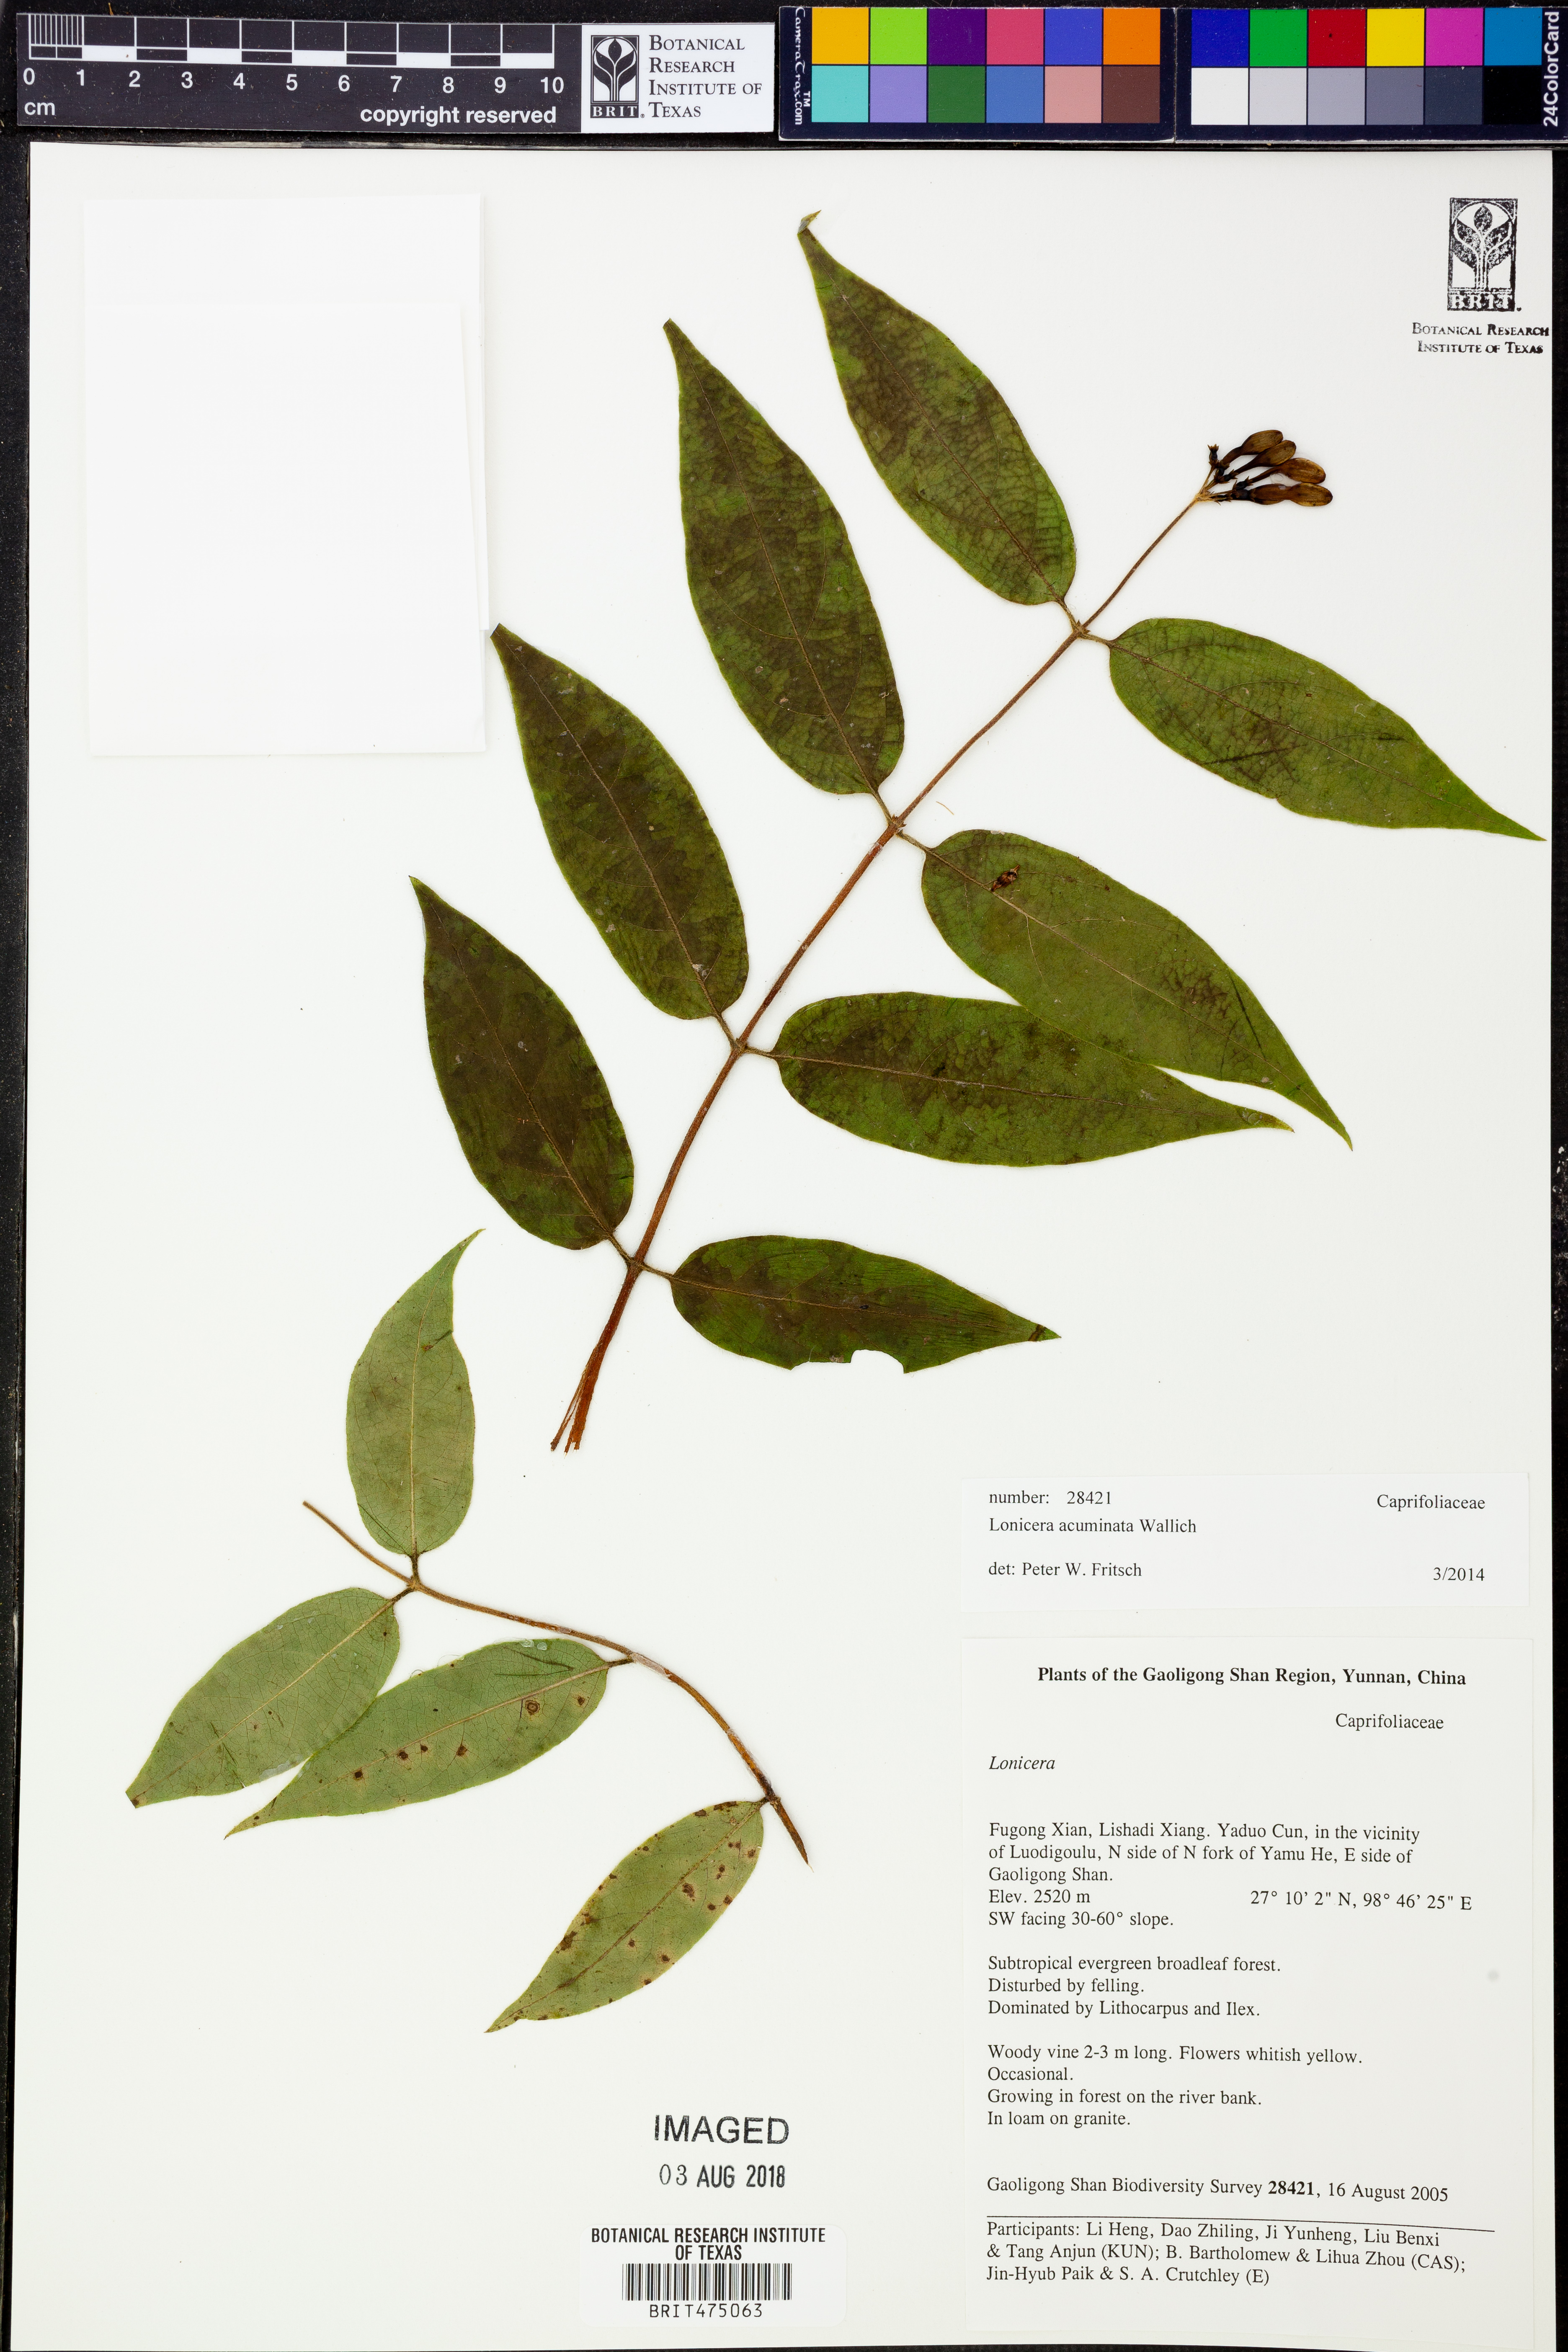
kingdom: Plantae
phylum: Tracheophyta
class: Magnoliopsida
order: Dipsacales
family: Caprifoliaceae
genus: Lonicera
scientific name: Lonicera acuminata
